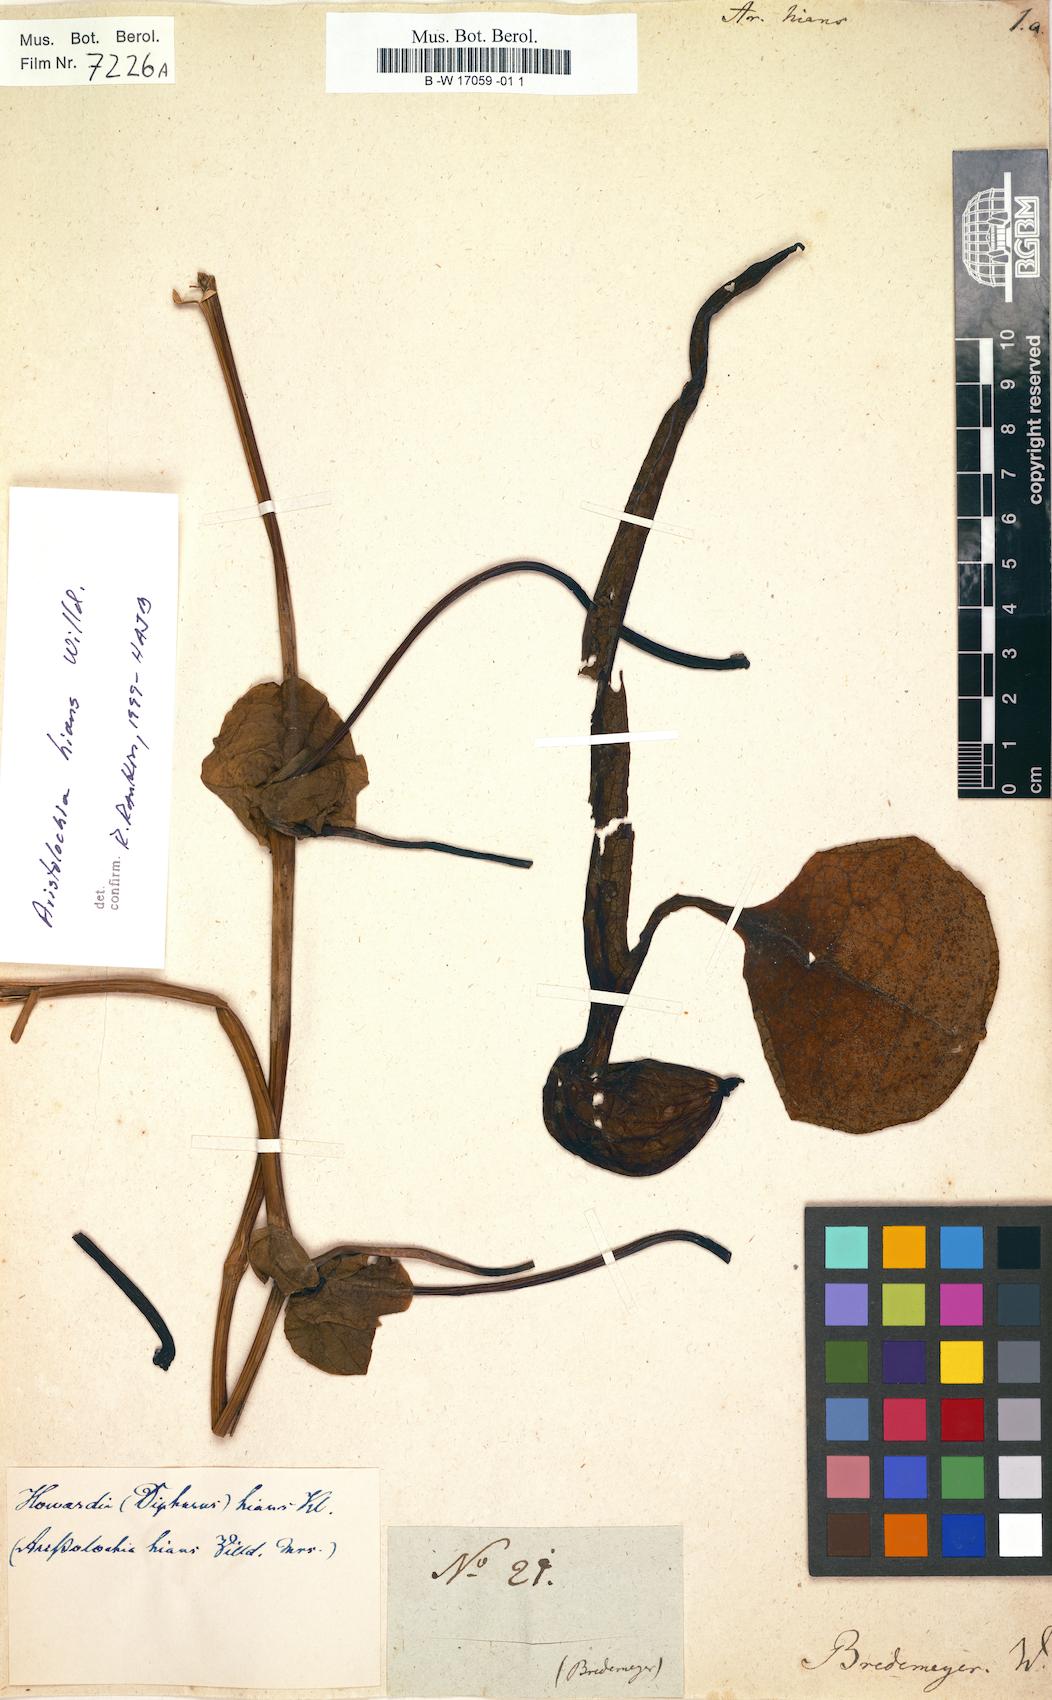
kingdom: Plantae
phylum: Tracheophyta
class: Magnoliopsida
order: Piperales
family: Aristolochiaceae
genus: Aristolochia
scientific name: Aristolochia hians
